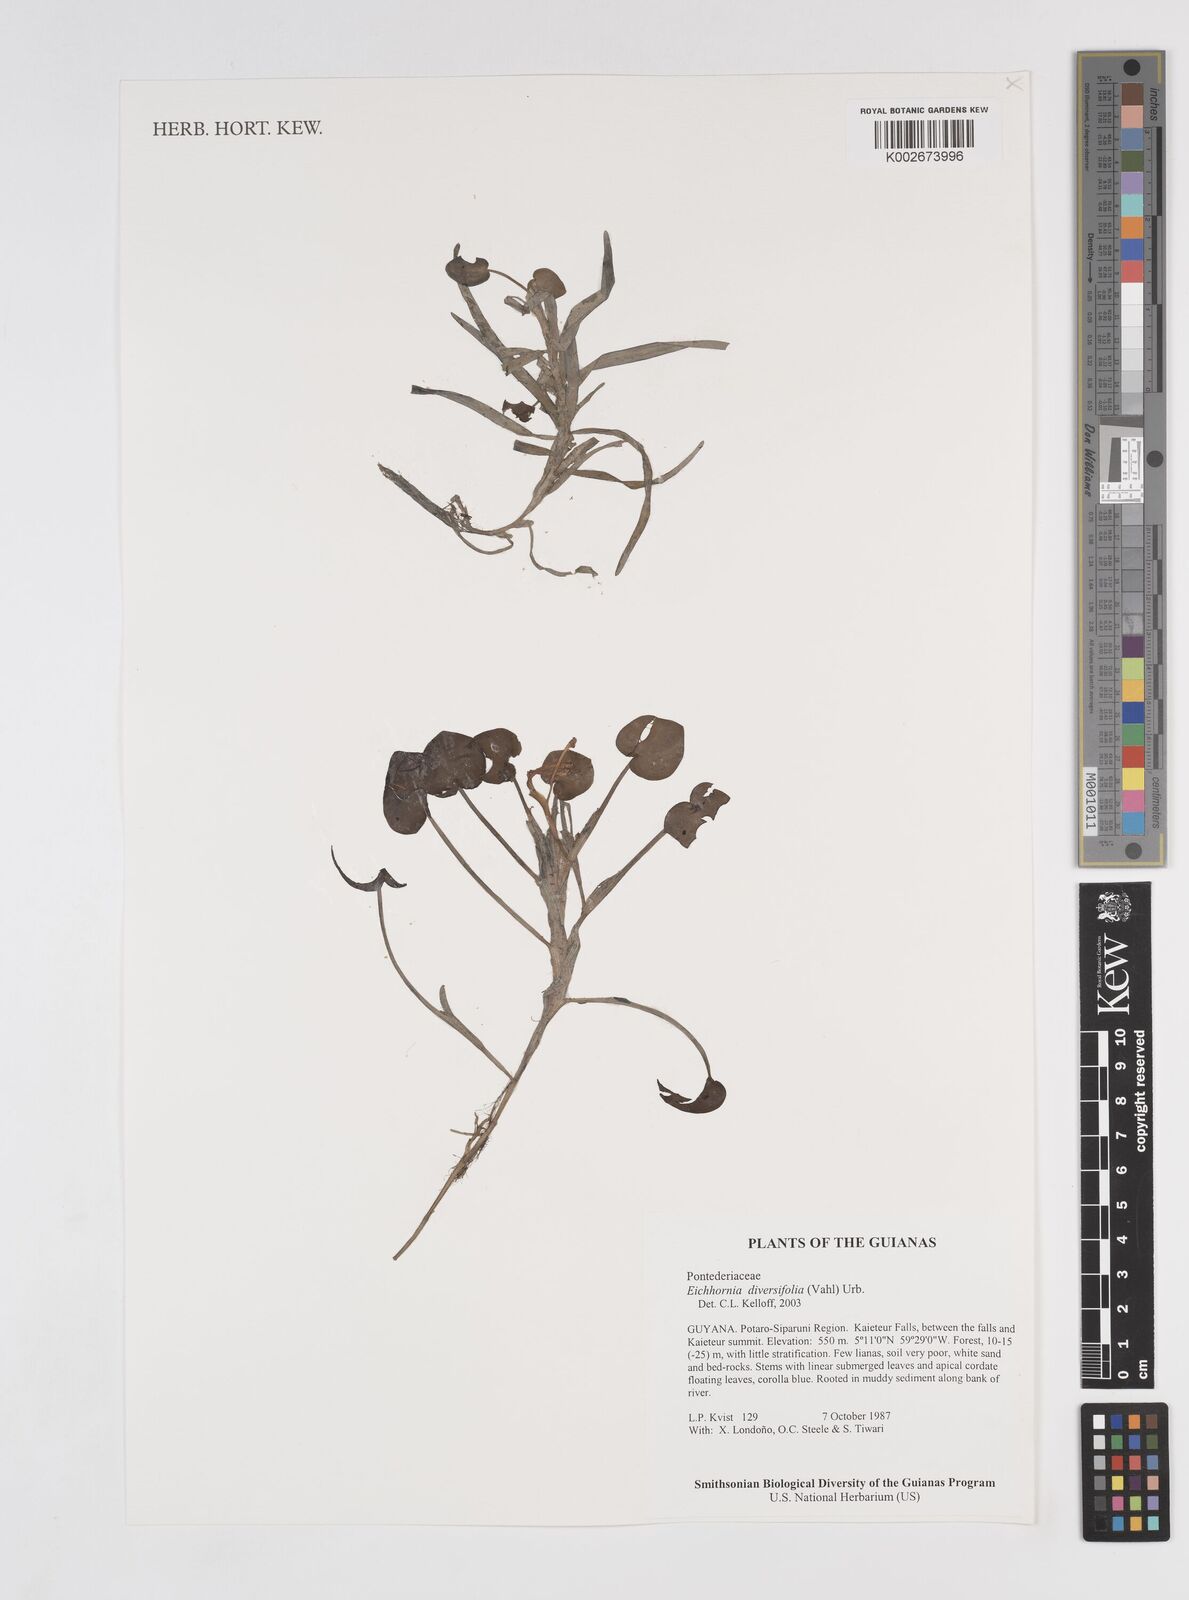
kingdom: Plantae
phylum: Tracheophyta
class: Liliopsida
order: Commelinales
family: Pontederiaceae
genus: Pontederia
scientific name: Pontederia diversifolia
